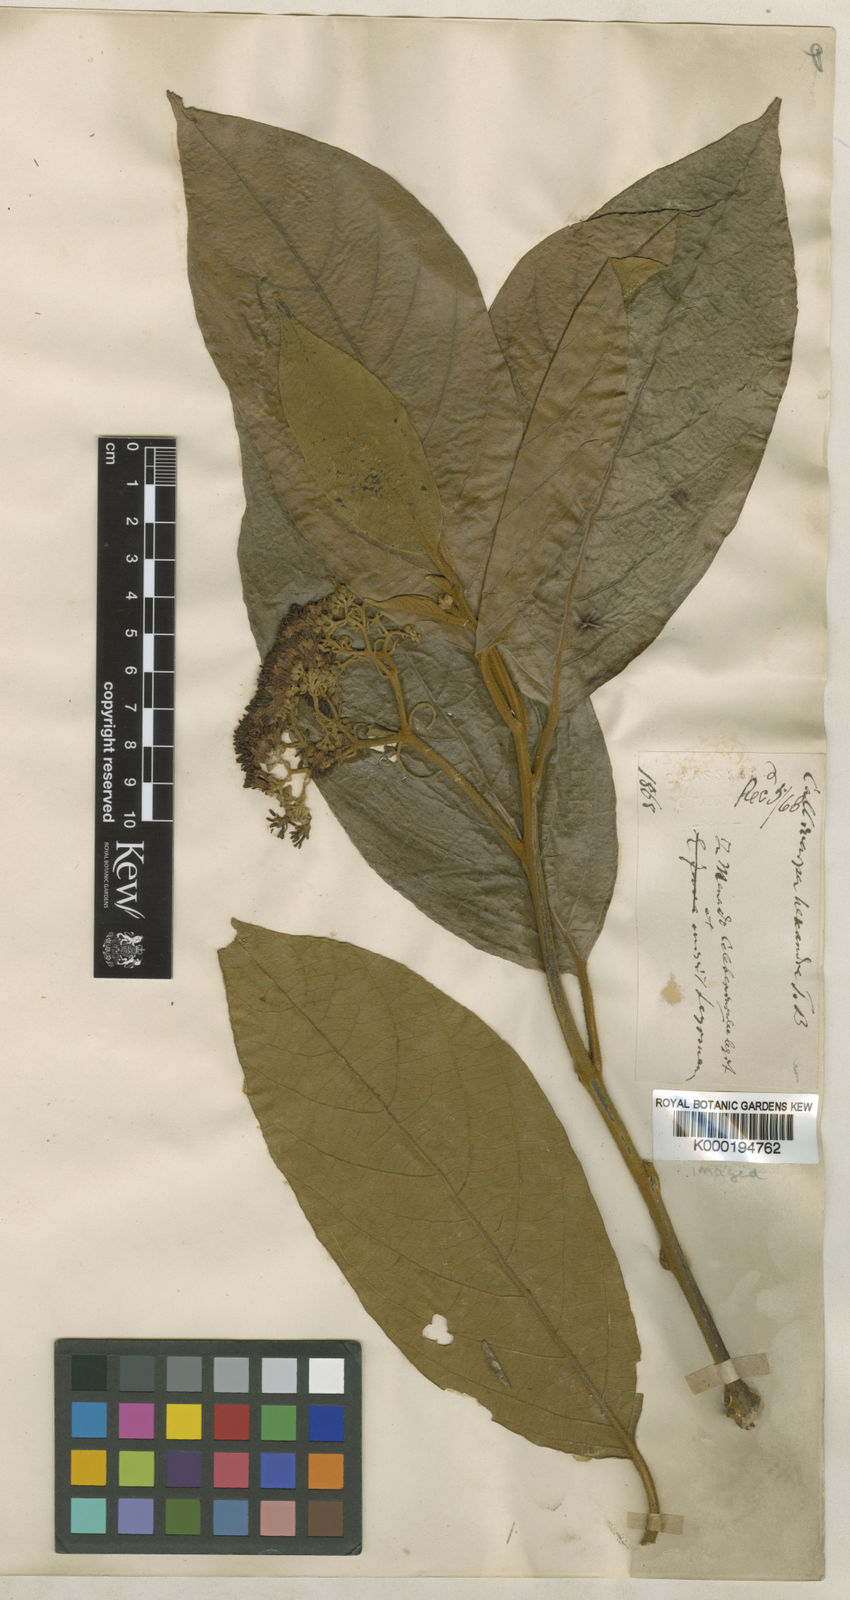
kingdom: Plantae
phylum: Tracheophyta
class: Magnoliopsida
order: Lamiales
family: Lamiaceae
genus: Callicarpa
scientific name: Callicarpa pentandra
